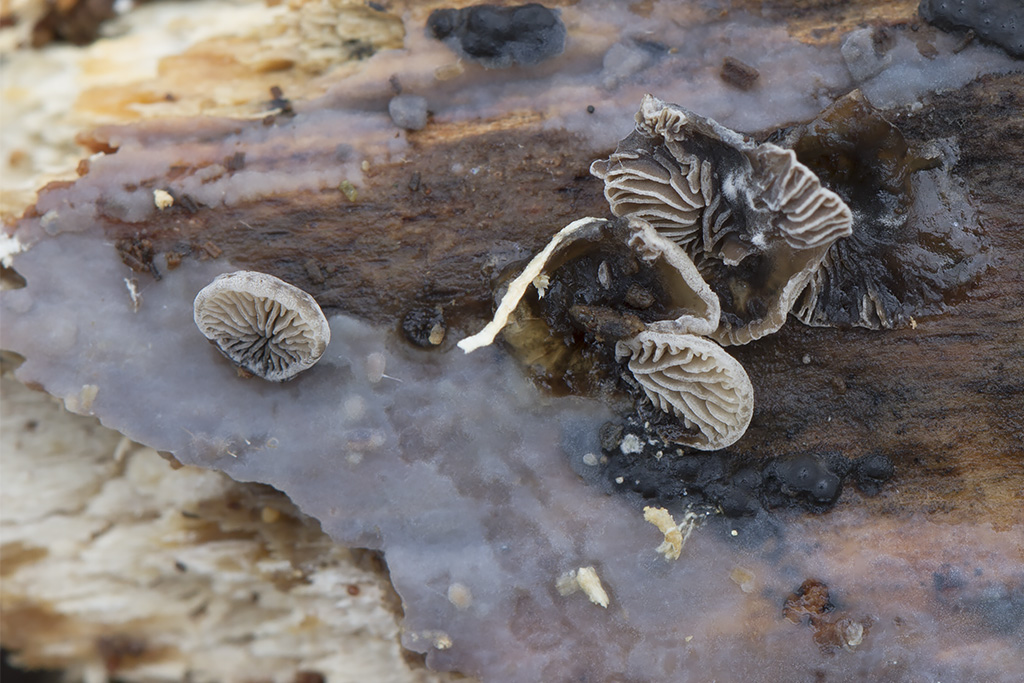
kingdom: Fungi
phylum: Basidiomycota
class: Agaricomycetes
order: Agaricales
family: Pleurotaceae
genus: Resupinatus
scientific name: Resupinatus applicatus
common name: lysfiltet barkhat
